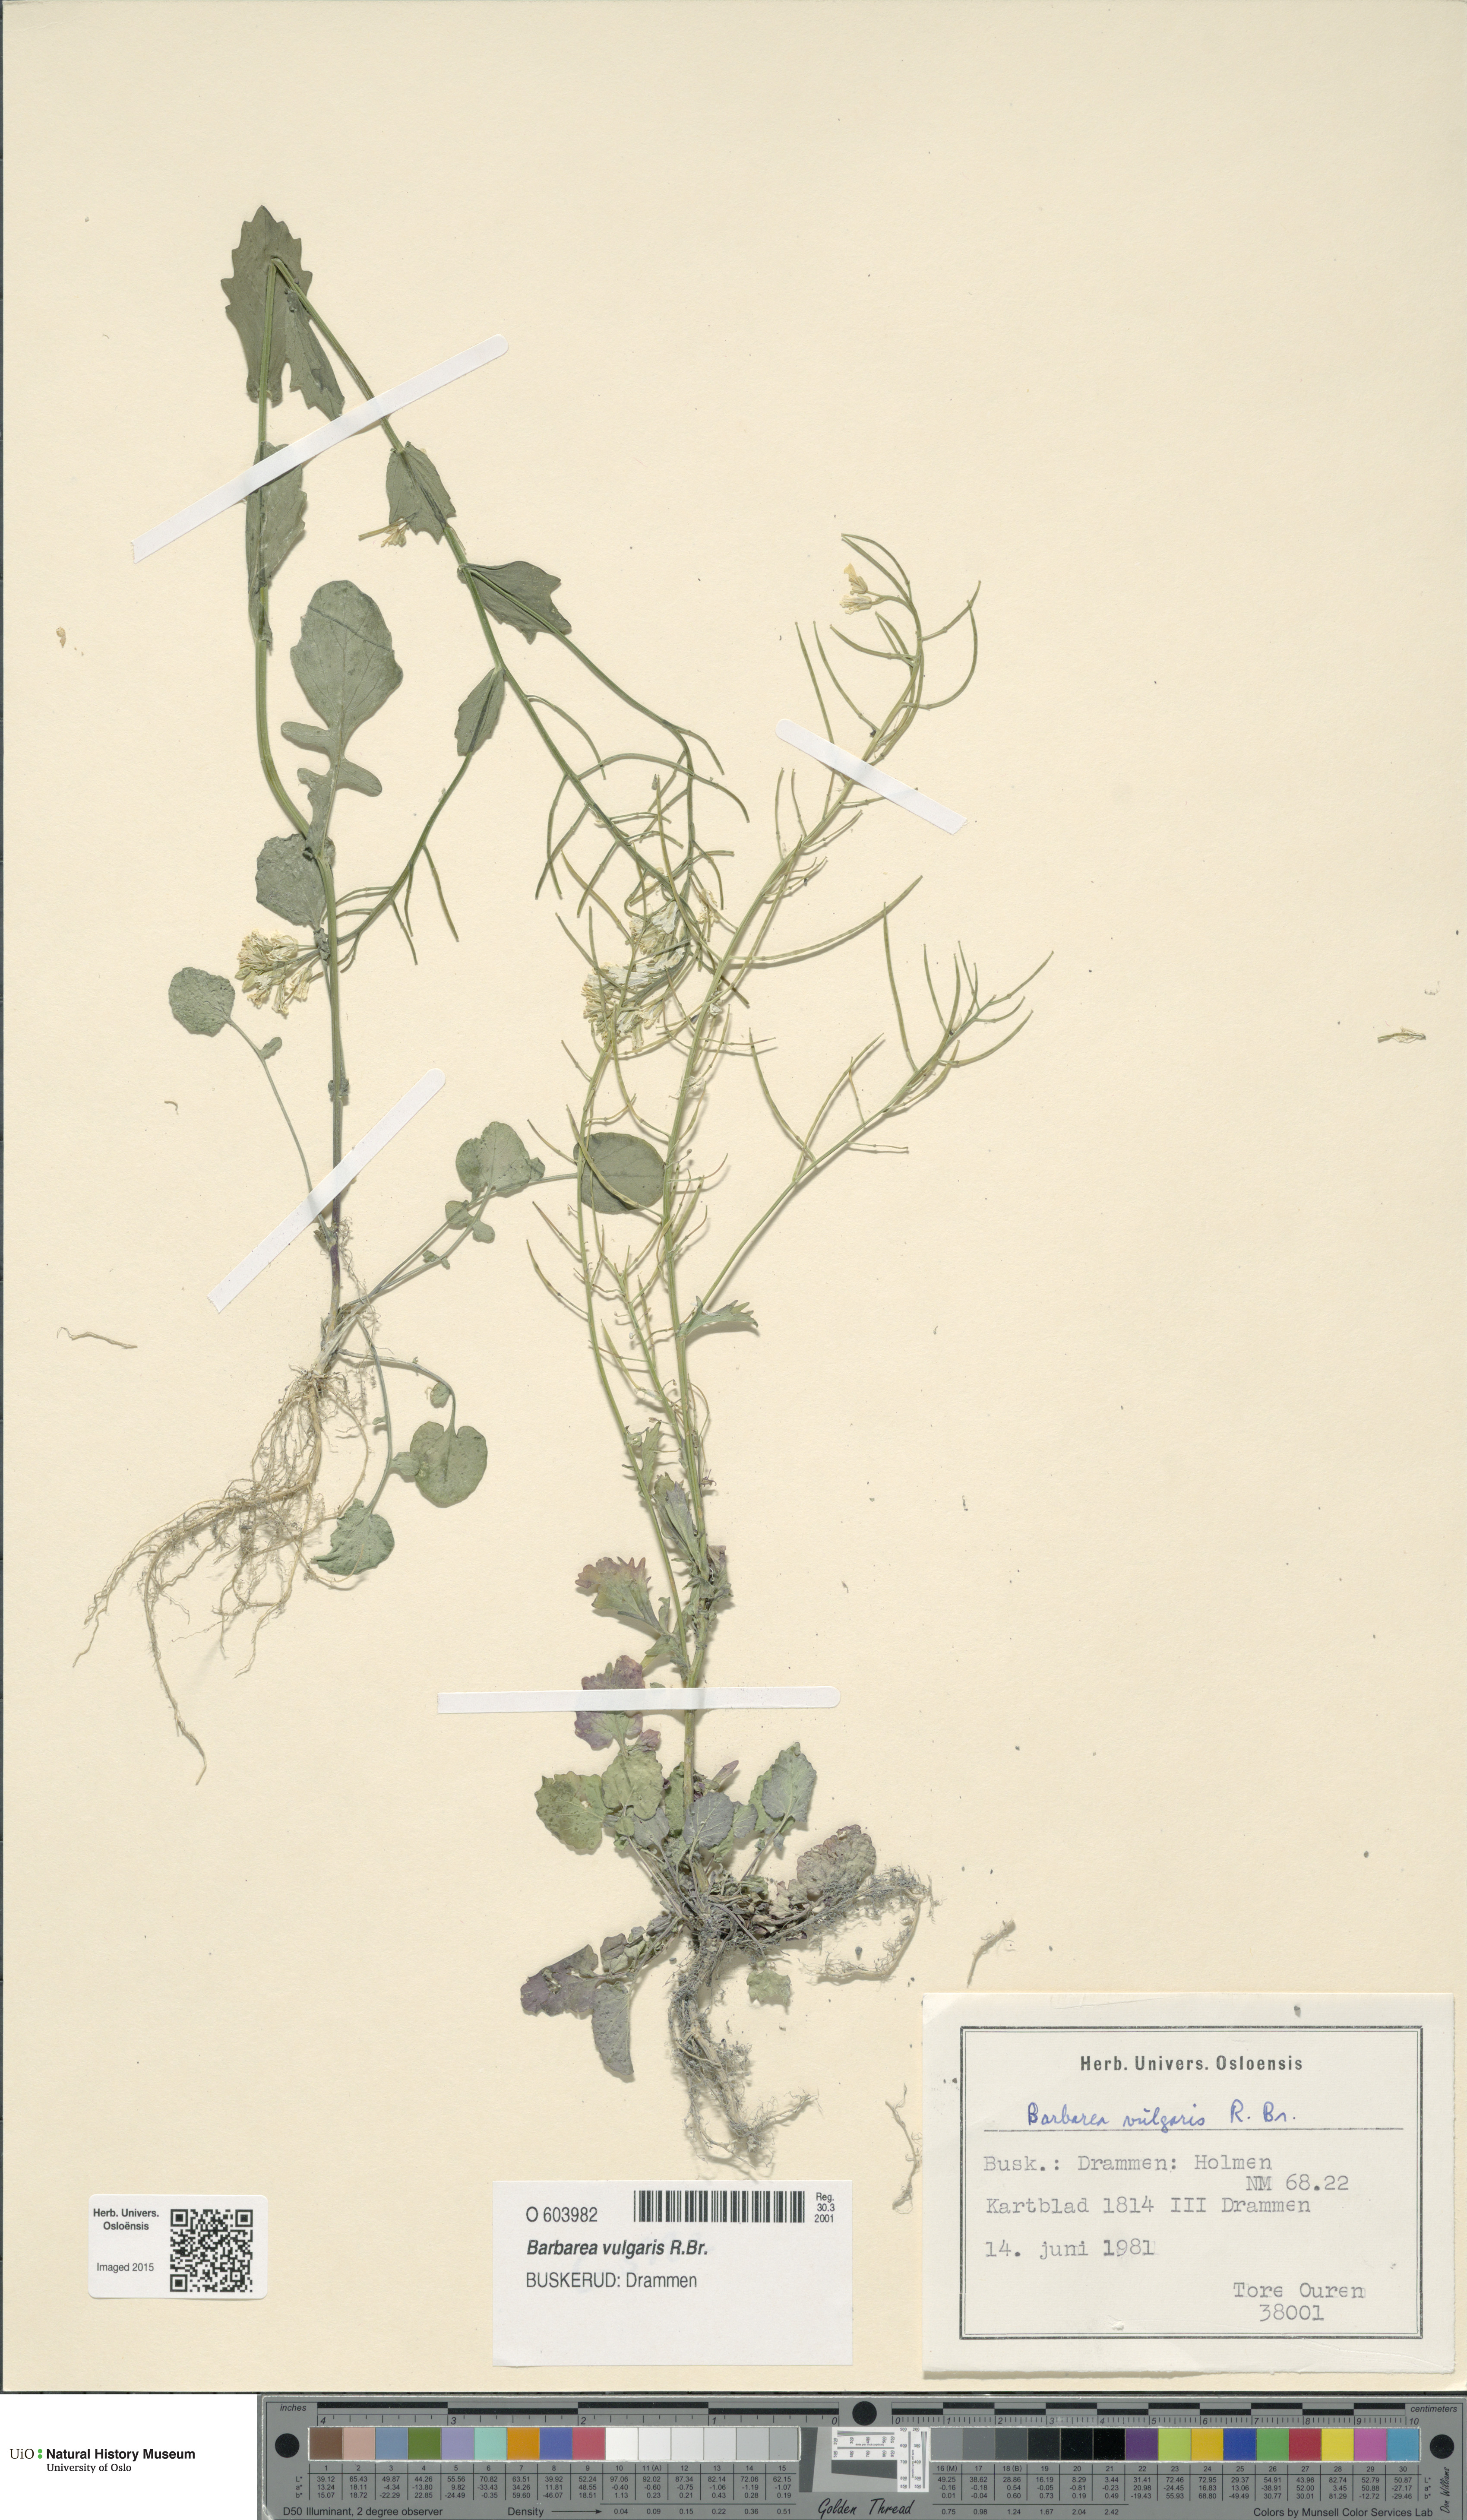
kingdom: Plantae
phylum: Tracheophyta
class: Magnoliopsida
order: Brassicales
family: Brassicaceae
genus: Barbarea
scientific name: Barbarea vulgaris
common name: Cressy-greens
